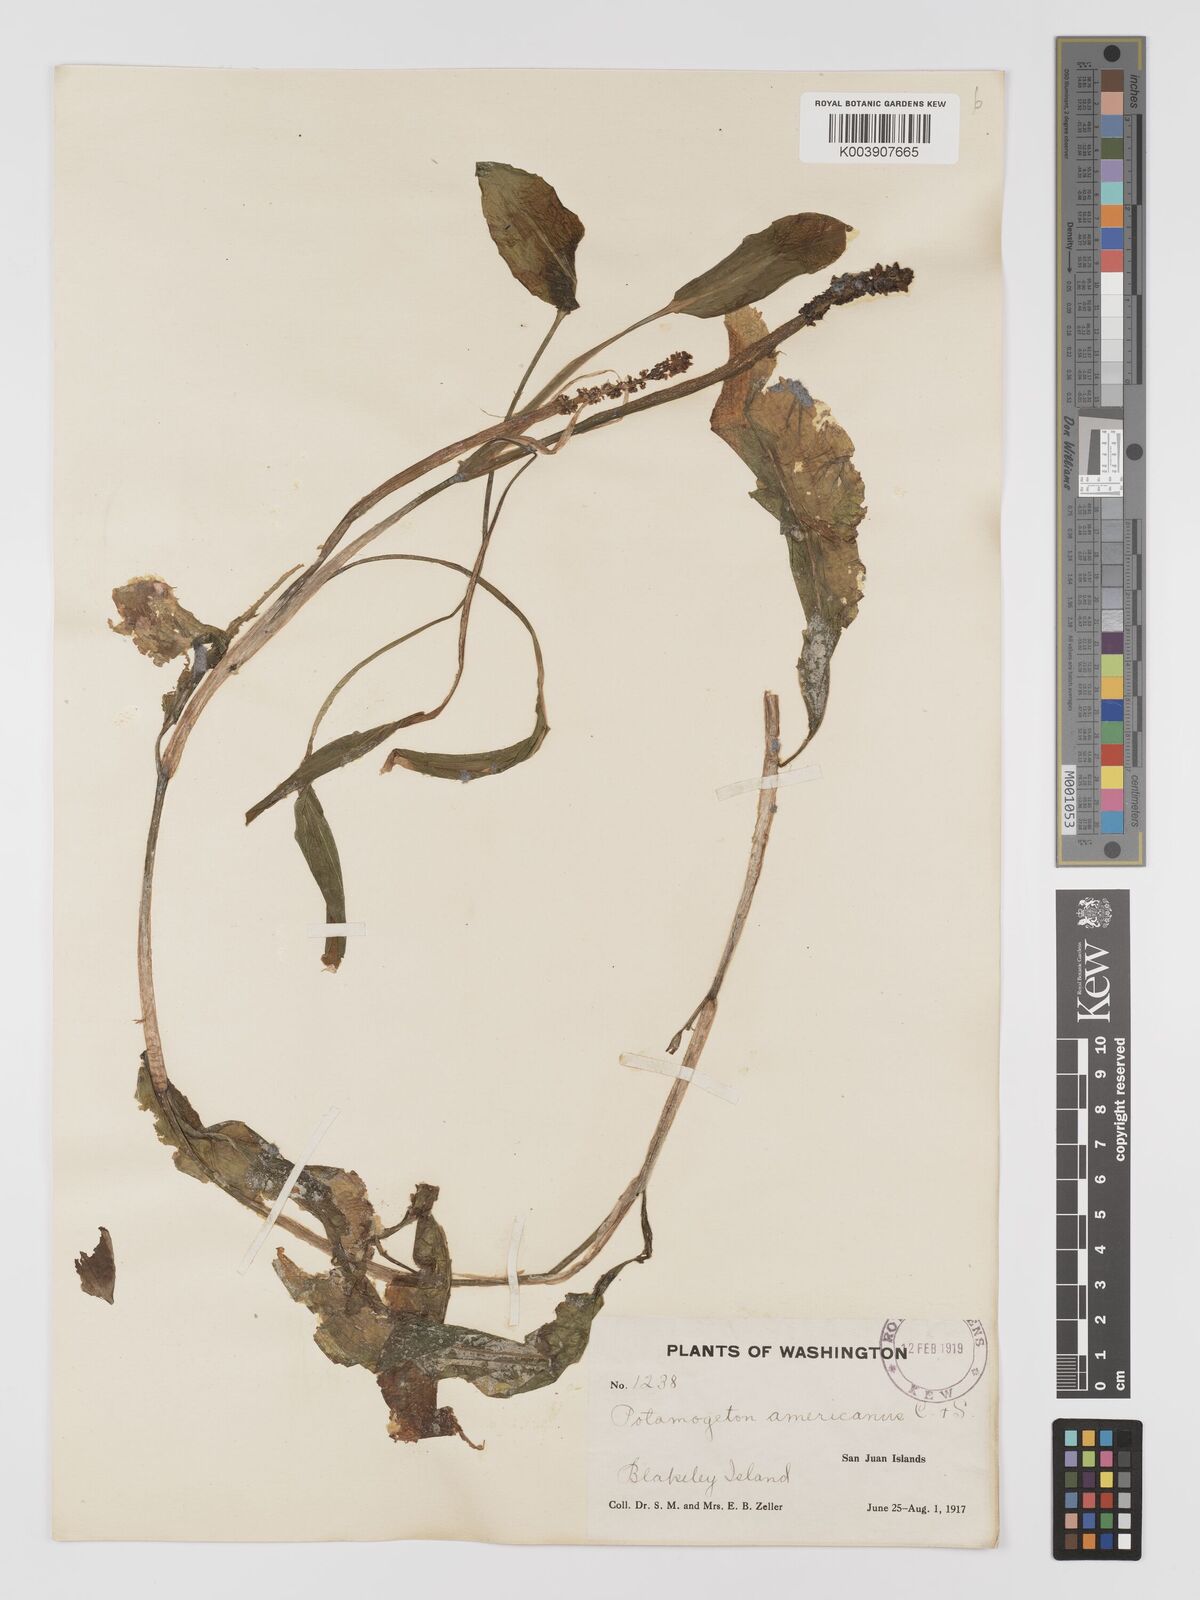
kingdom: Plantae
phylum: Tracheophyta
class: Liliopsida
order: Alismatales
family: Potamogetonaceae
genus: Potamogeton
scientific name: Potamogeton amplifolius
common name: Broad-leaved pondweed
